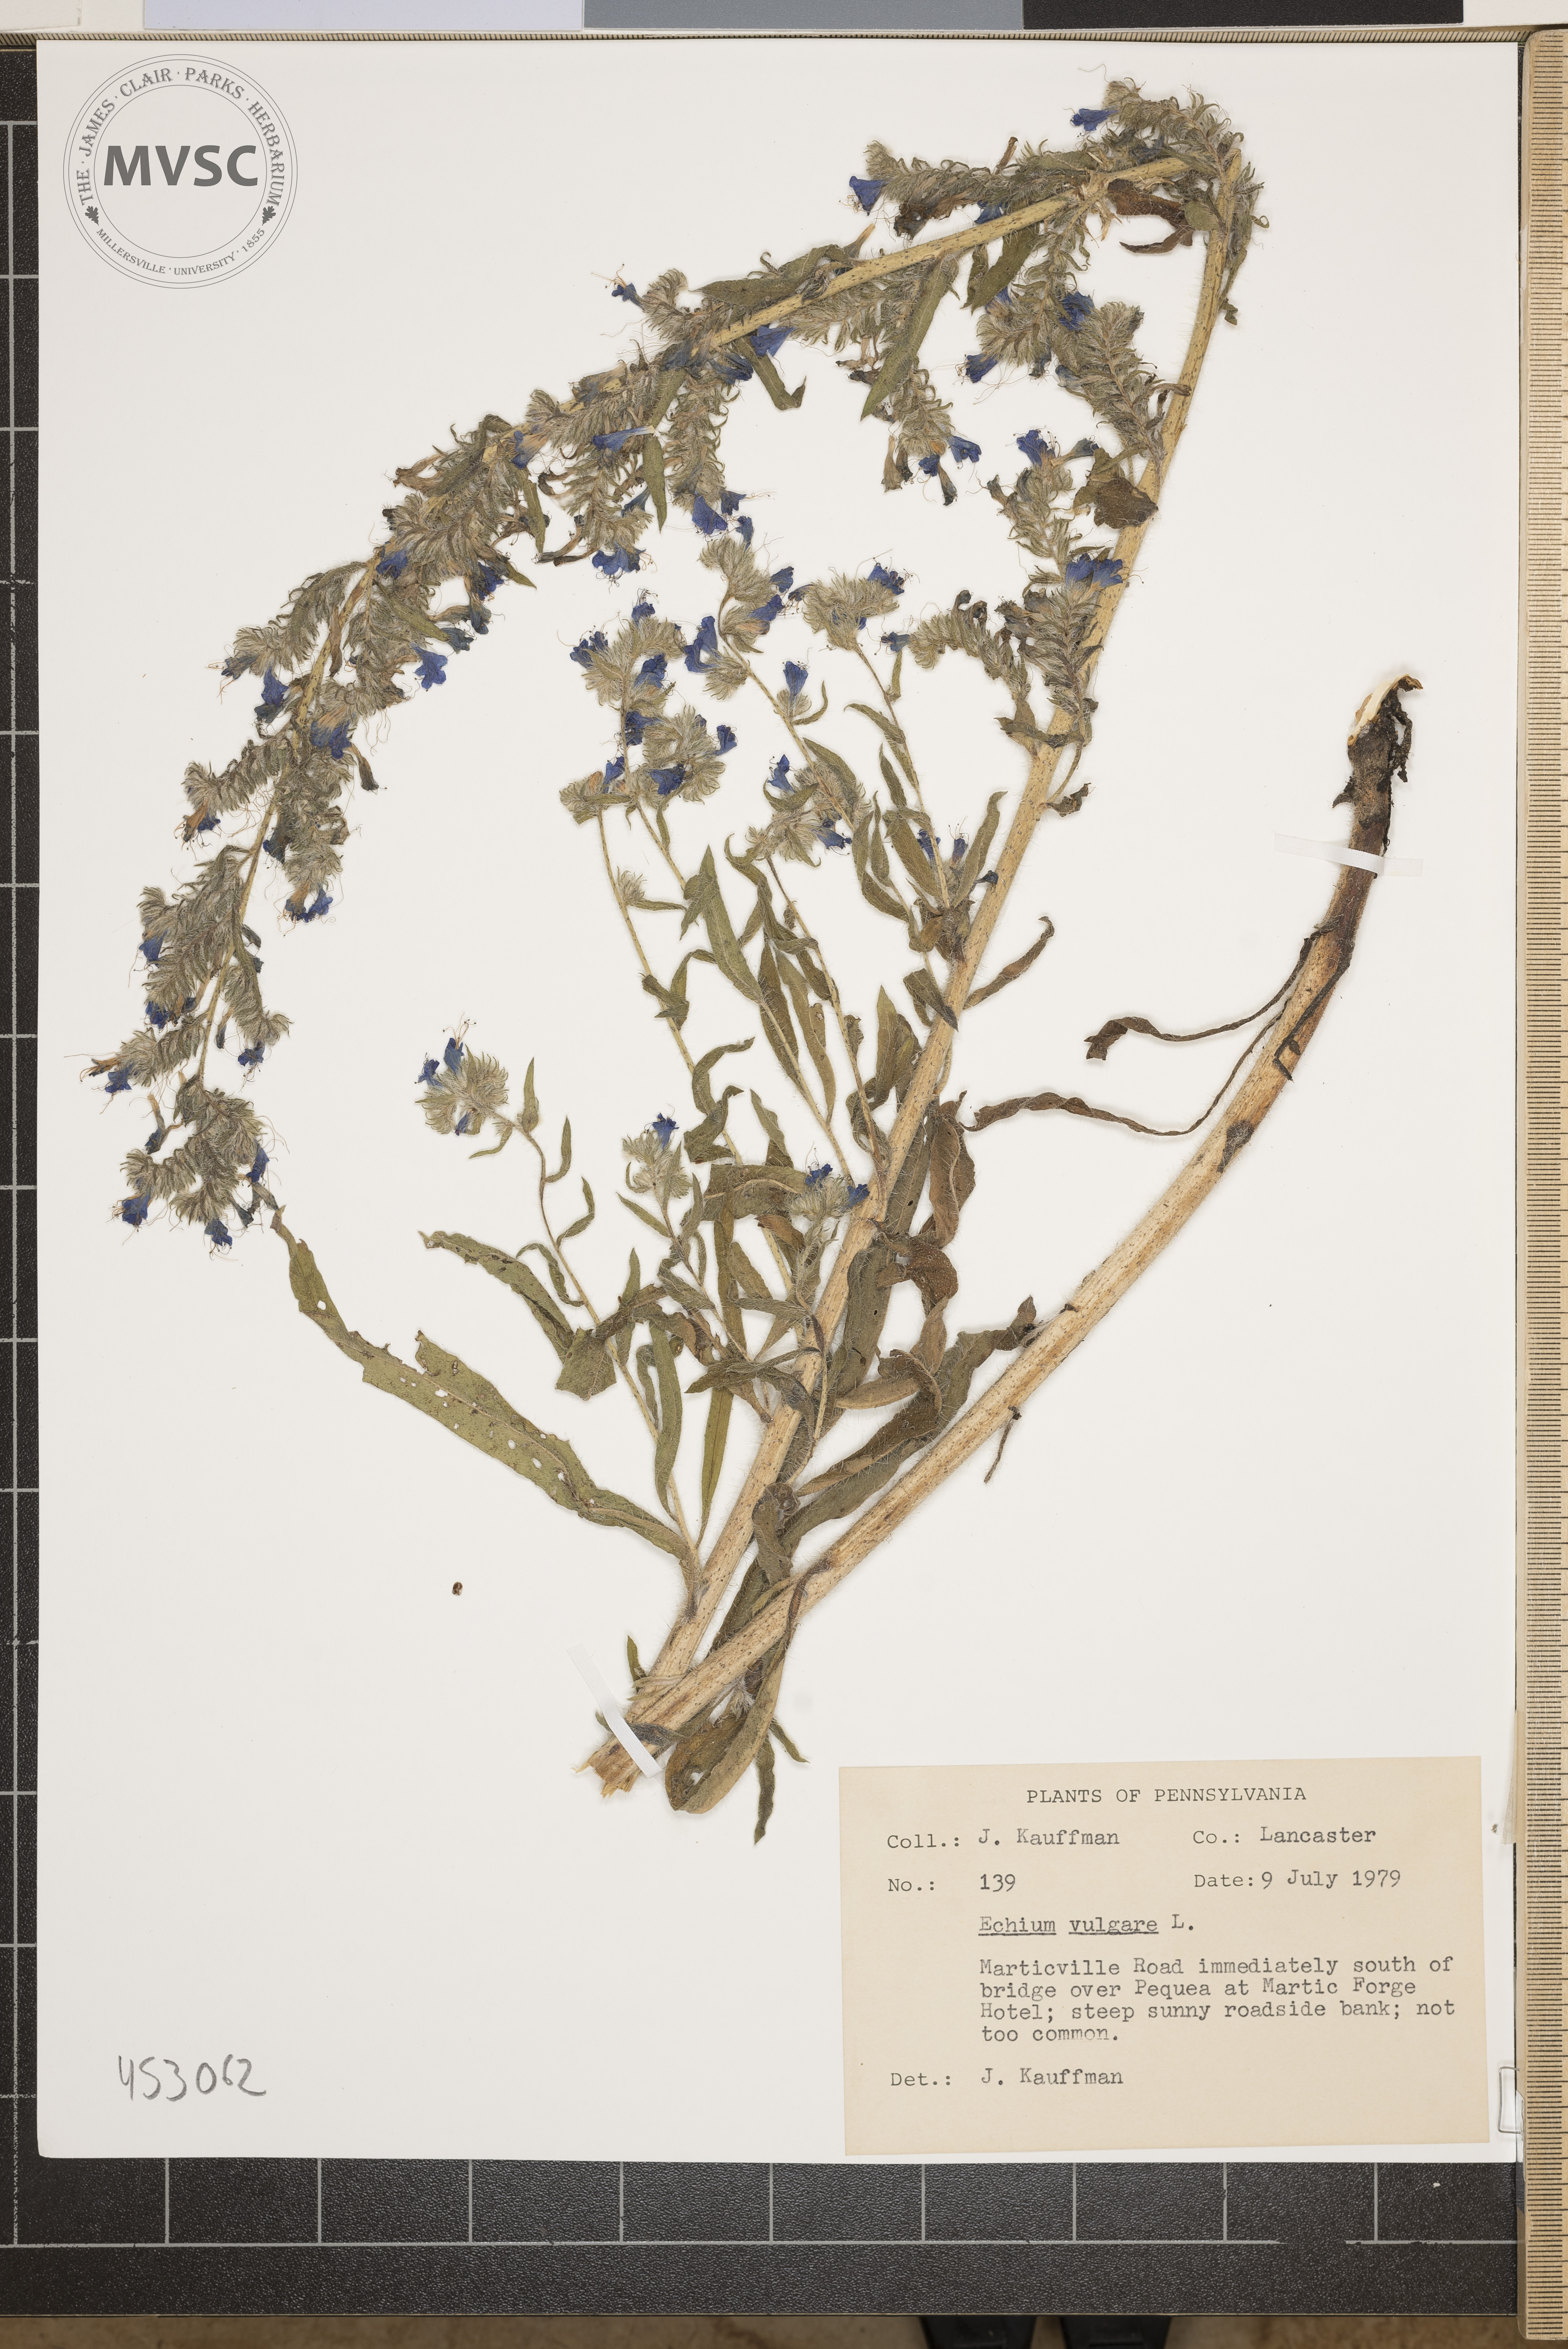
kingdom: Plantae
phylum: Tracheophyta
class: Magnoliopsida
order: Boraginales
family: Boraginaceae
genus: Echium
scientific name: Echium vulgare
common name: Common viper's bugloss
